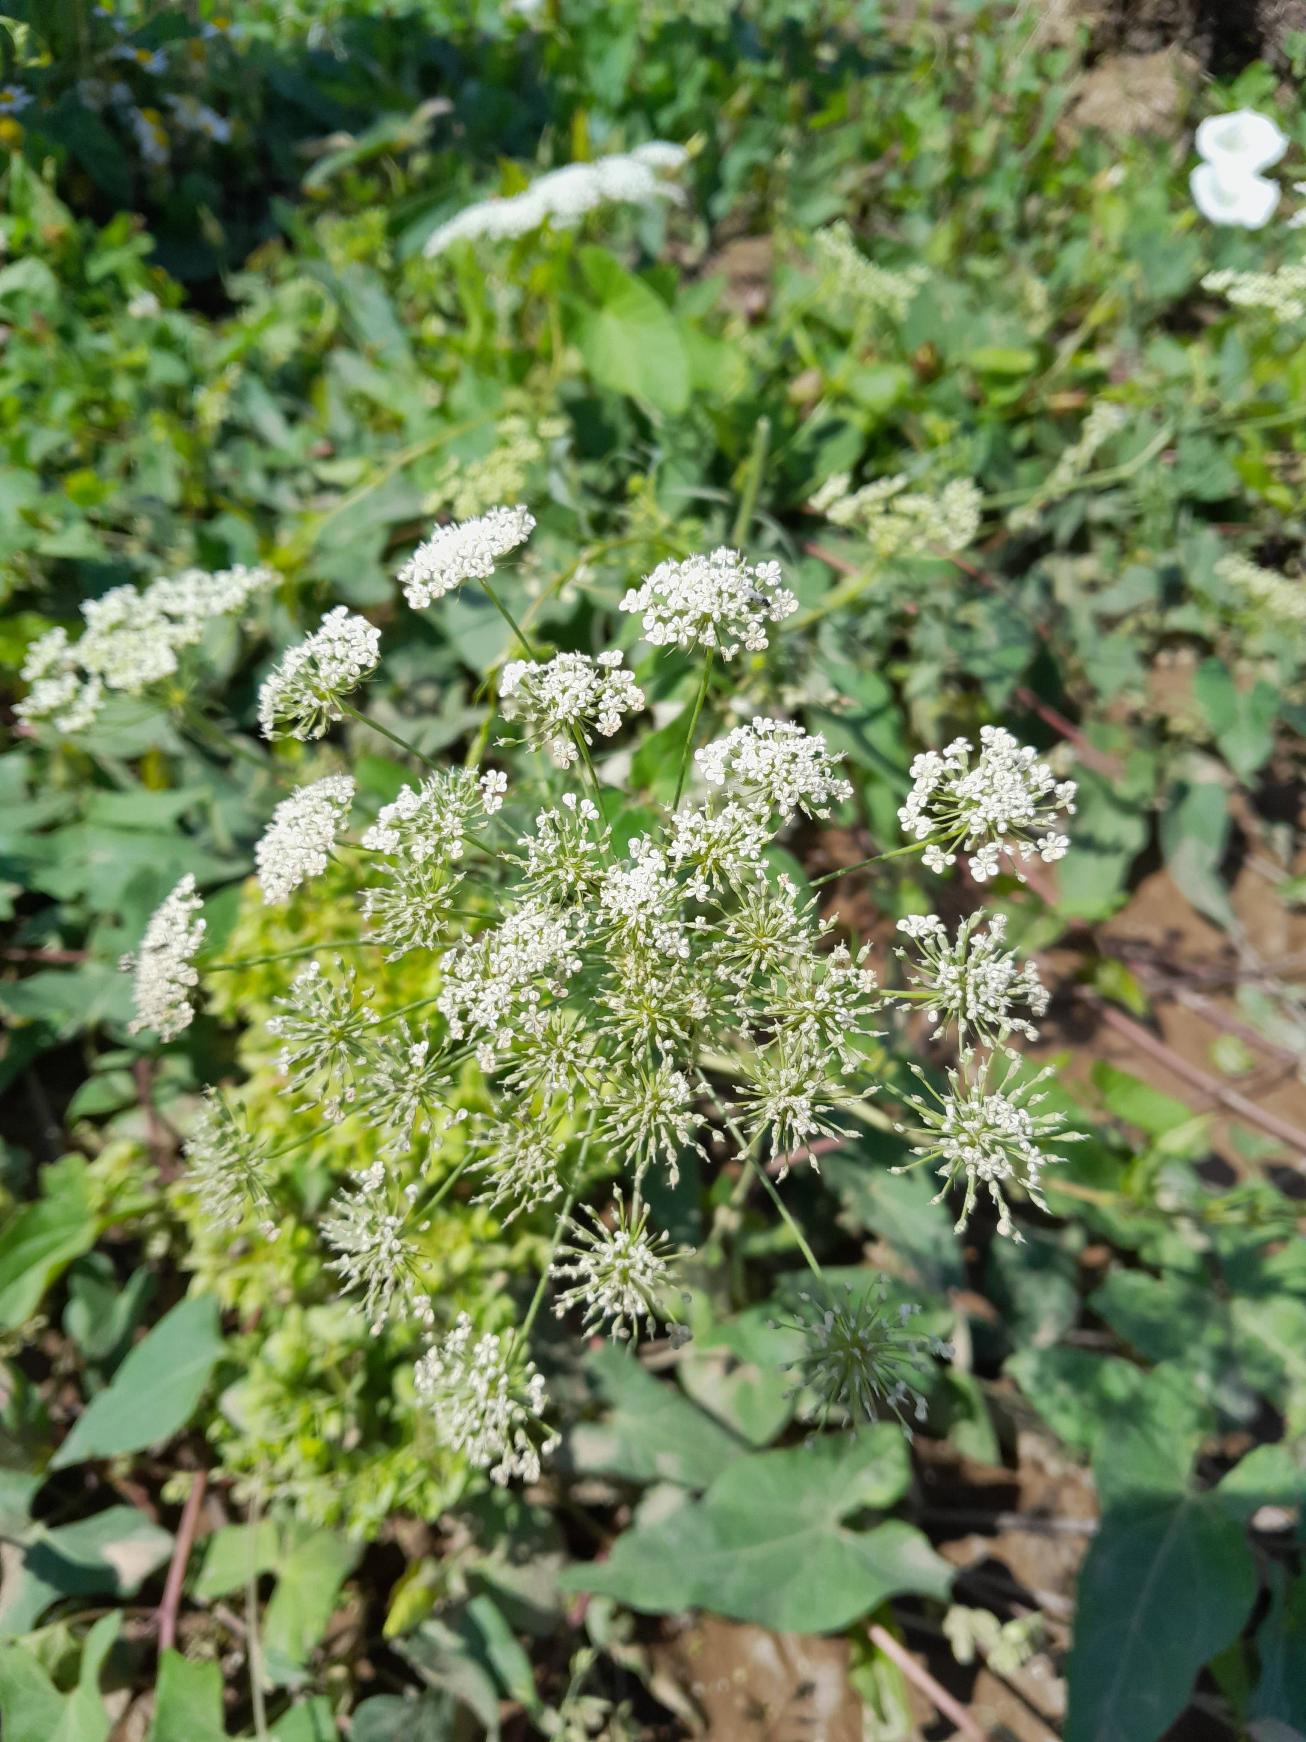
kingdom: Plantae
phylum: Tracheophyta
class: Magnoliopsida
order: Apiales
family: Apiaceae
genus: Ammi
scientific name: Ammi majus
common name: Kongekommen
